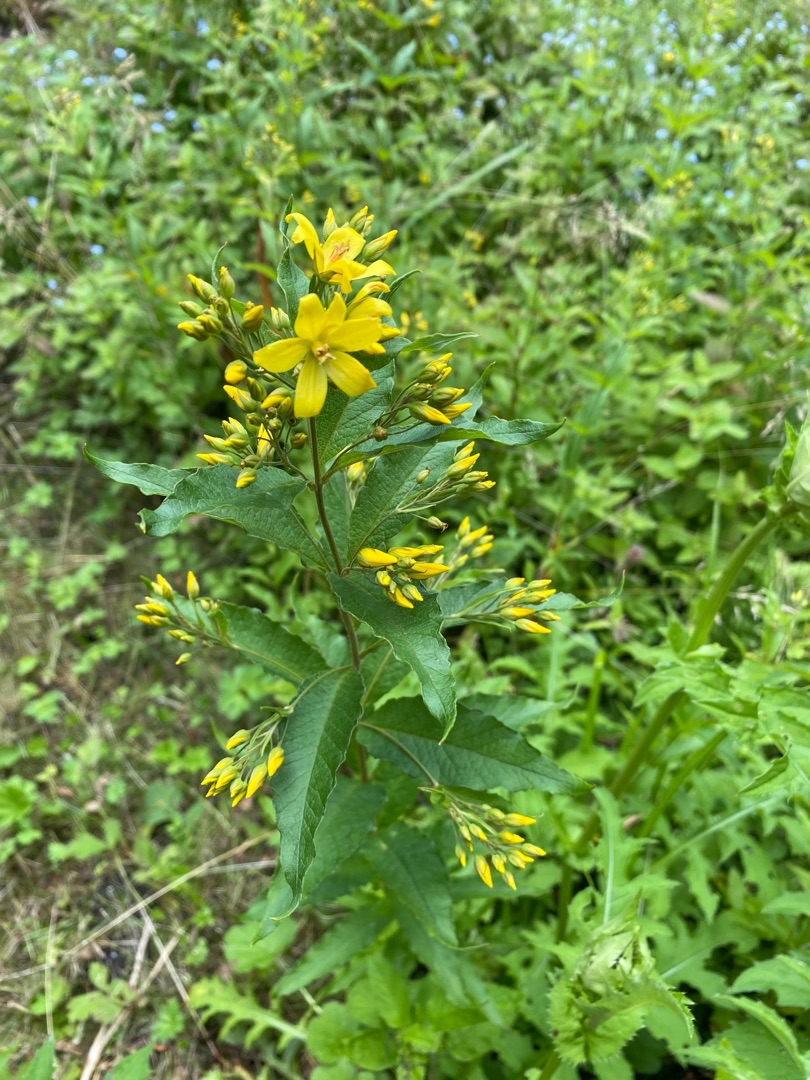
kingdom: Plantae
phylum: Tracheophyta
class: Magnoliopsida
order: Ericales
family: Primulaceae
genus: Lysimachia
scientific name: Lysimachia vulgaris
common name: Almindelig fredløs
